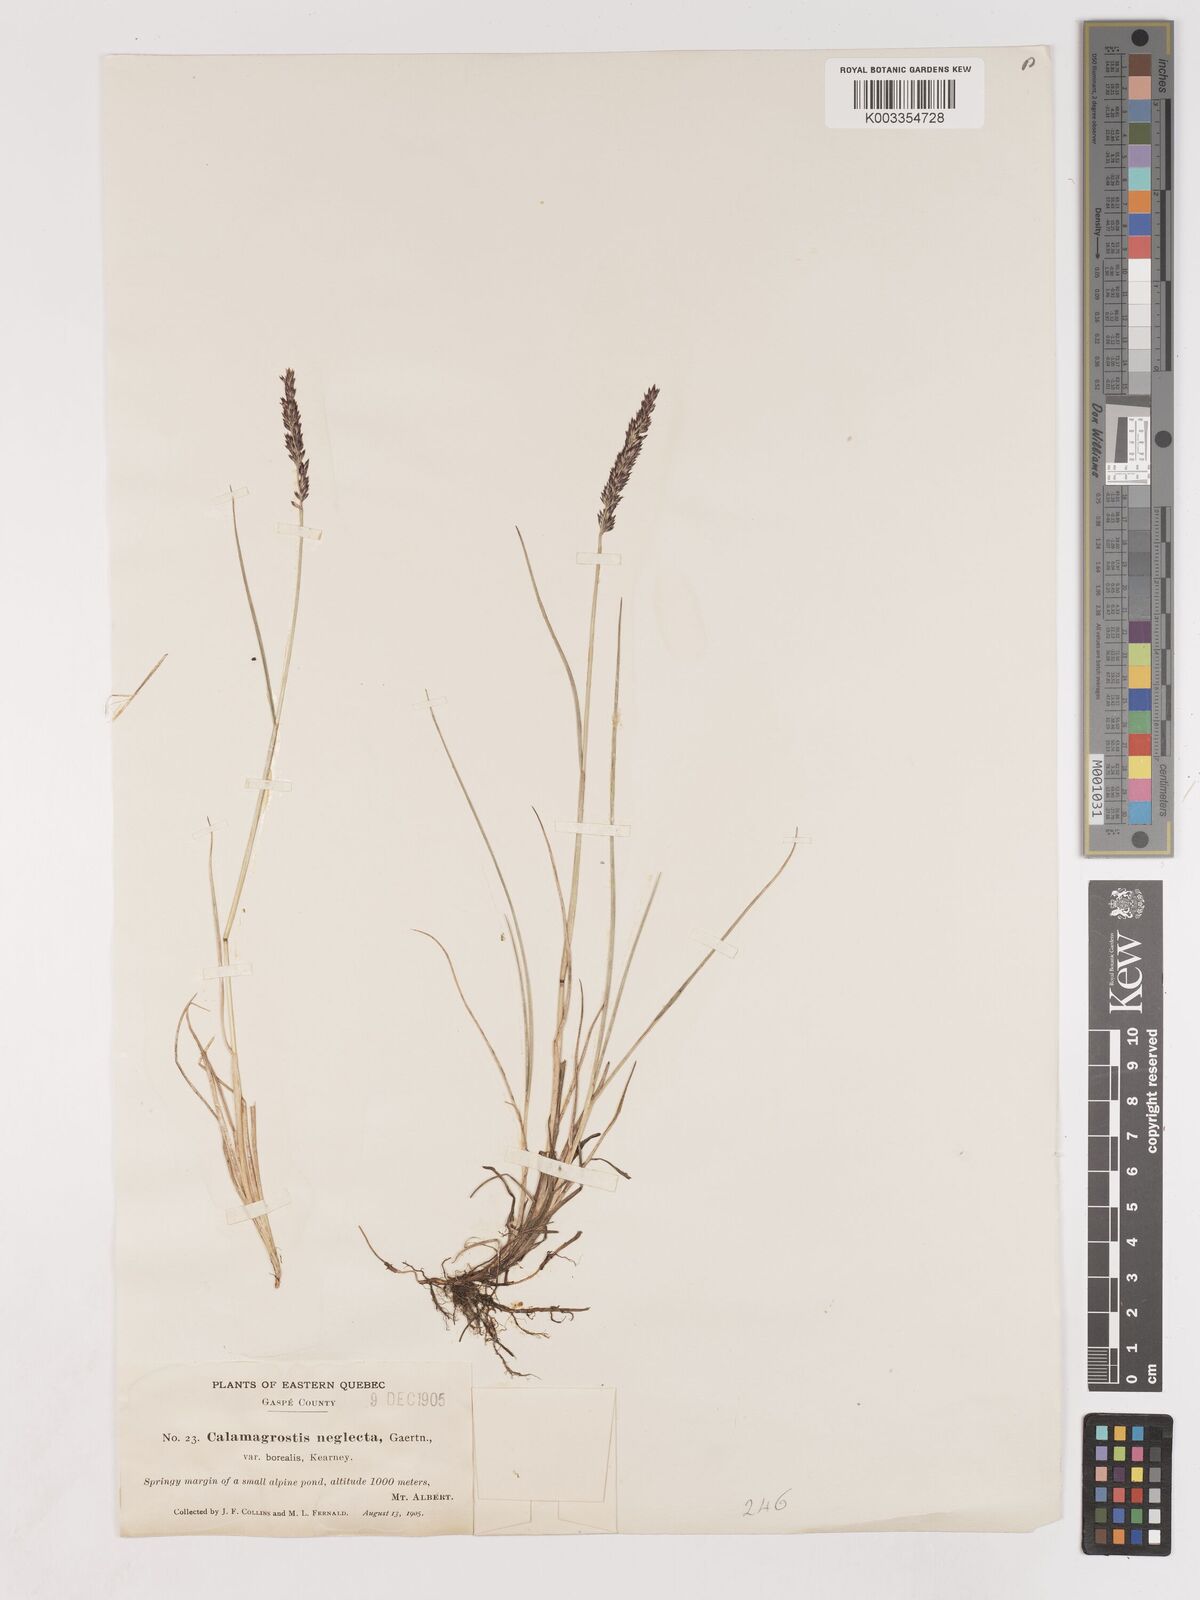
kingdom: Plantae
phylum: Tracheophyta
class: Liliopsida
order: Poales
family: Poaceae
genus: Cinnagrostis
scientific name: Cinnagrostis recta
